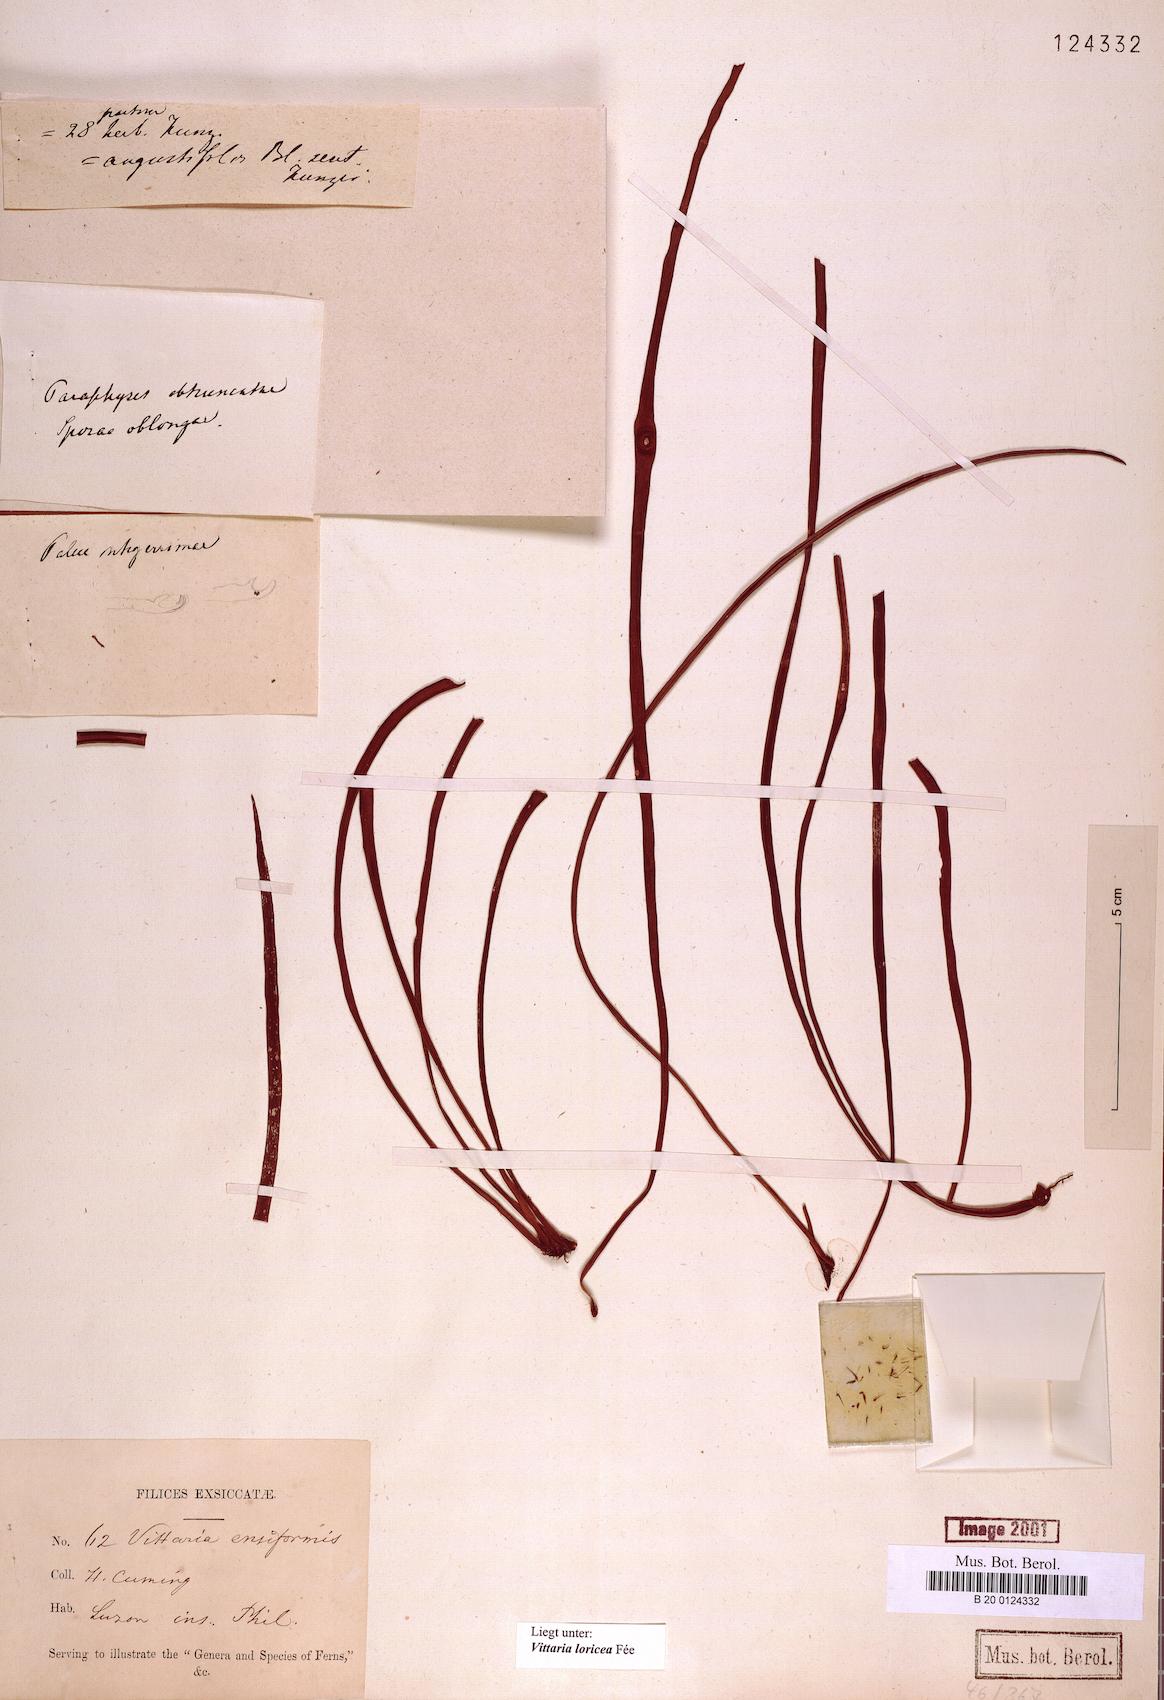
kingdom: Plantae
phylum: Tracheophyta
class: Polypodiopsida
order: Polypodiales
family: Pteridaceae
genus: Haplopteris
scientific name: Haplopteris zosterifolia
